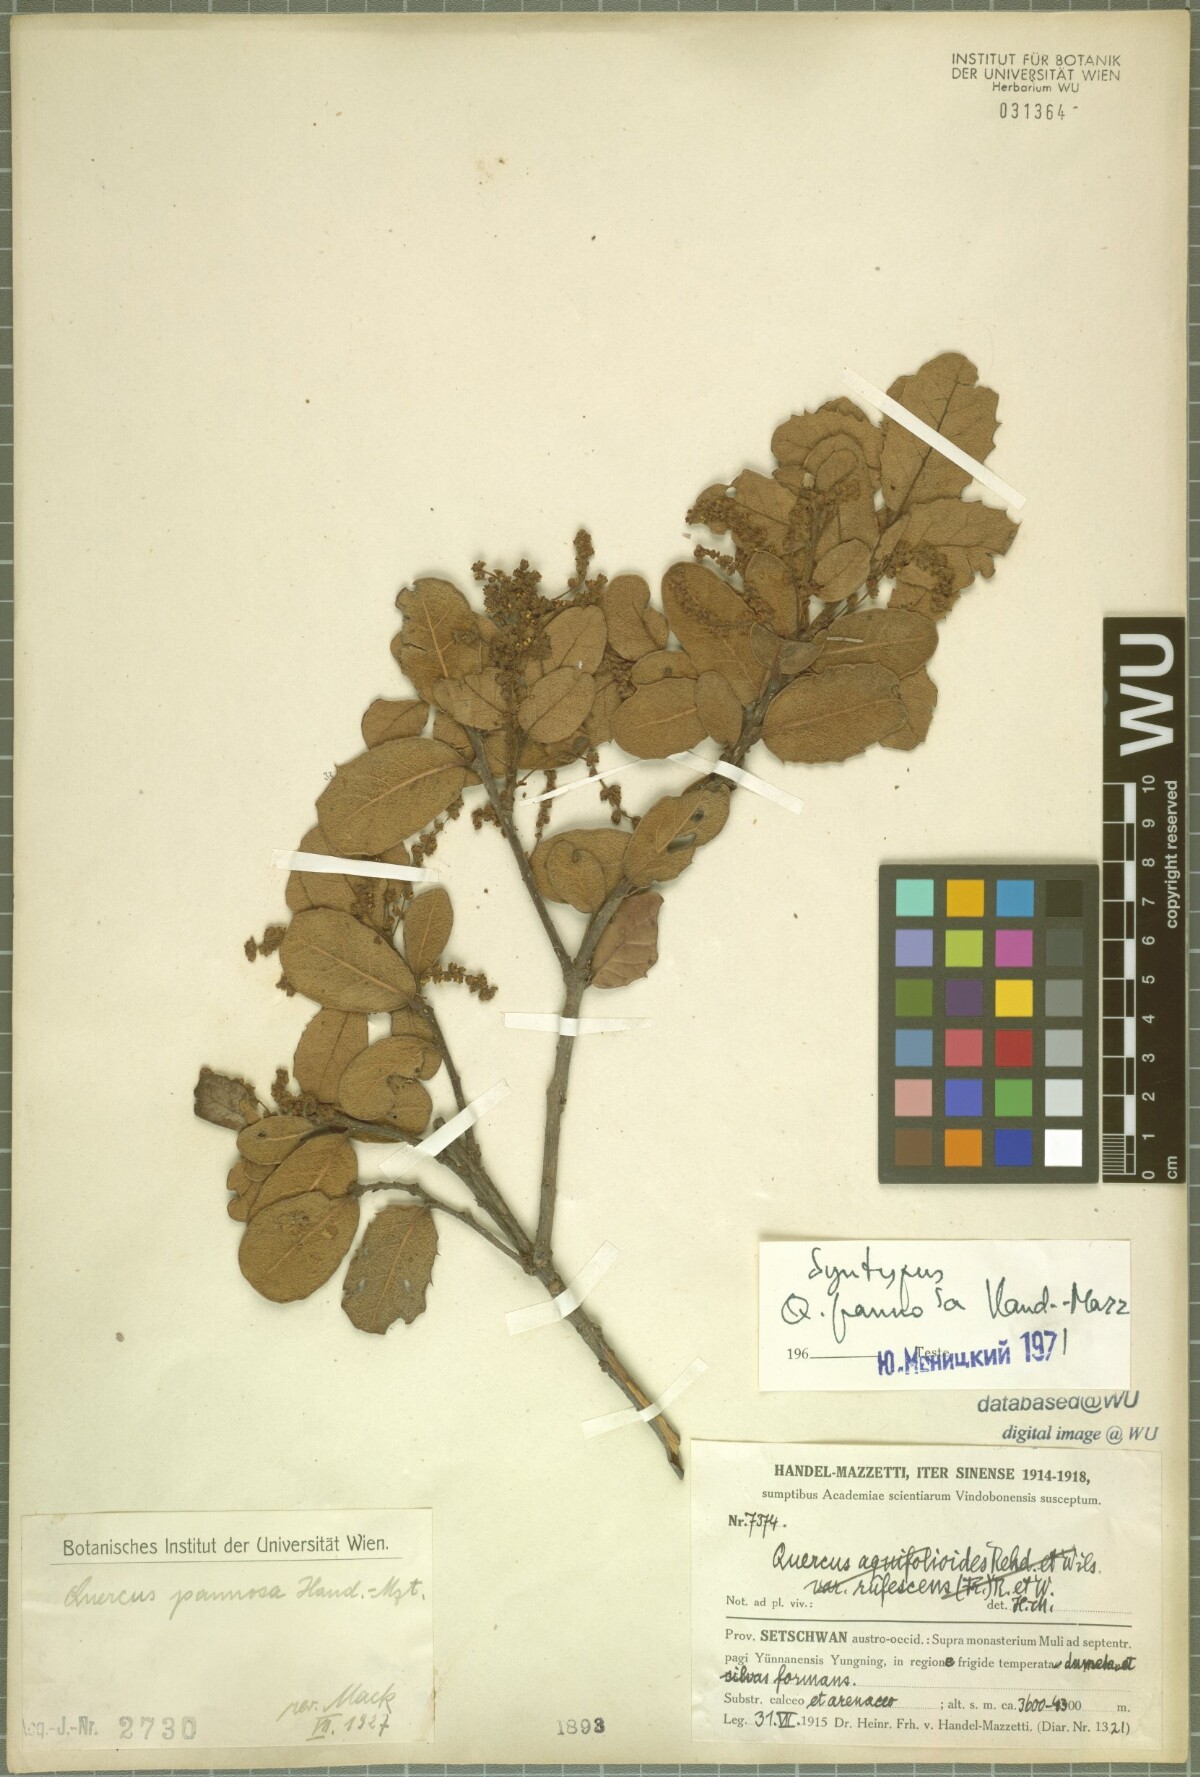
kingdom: Plantae
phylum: Tracheophyta
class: Magnoliopsida
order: Fagales
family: Fagaceae
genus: Quercus
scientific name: Quercus pannosa
